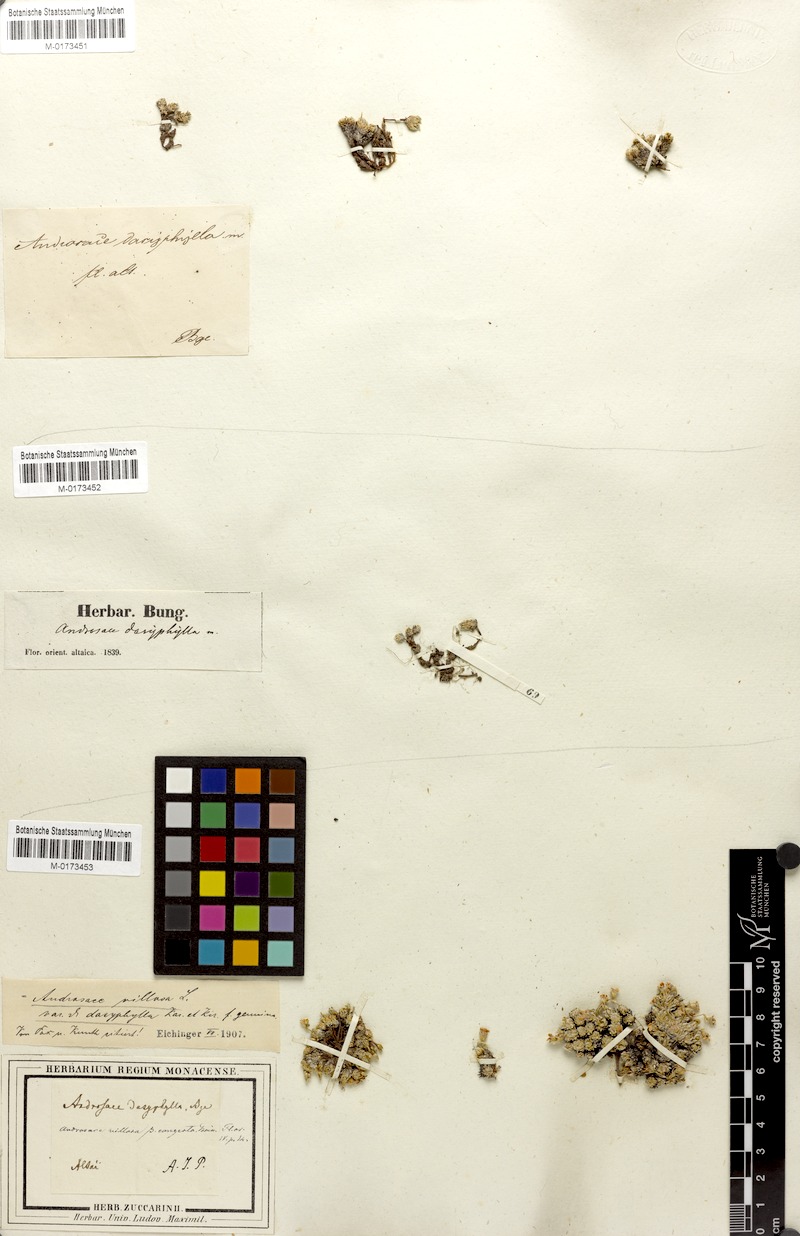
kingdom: Plantae
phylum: Tracheophyta
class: Magnoliopsida
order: Ericales
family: Primulaceae
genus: Androsace
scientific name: Androsace villosa
